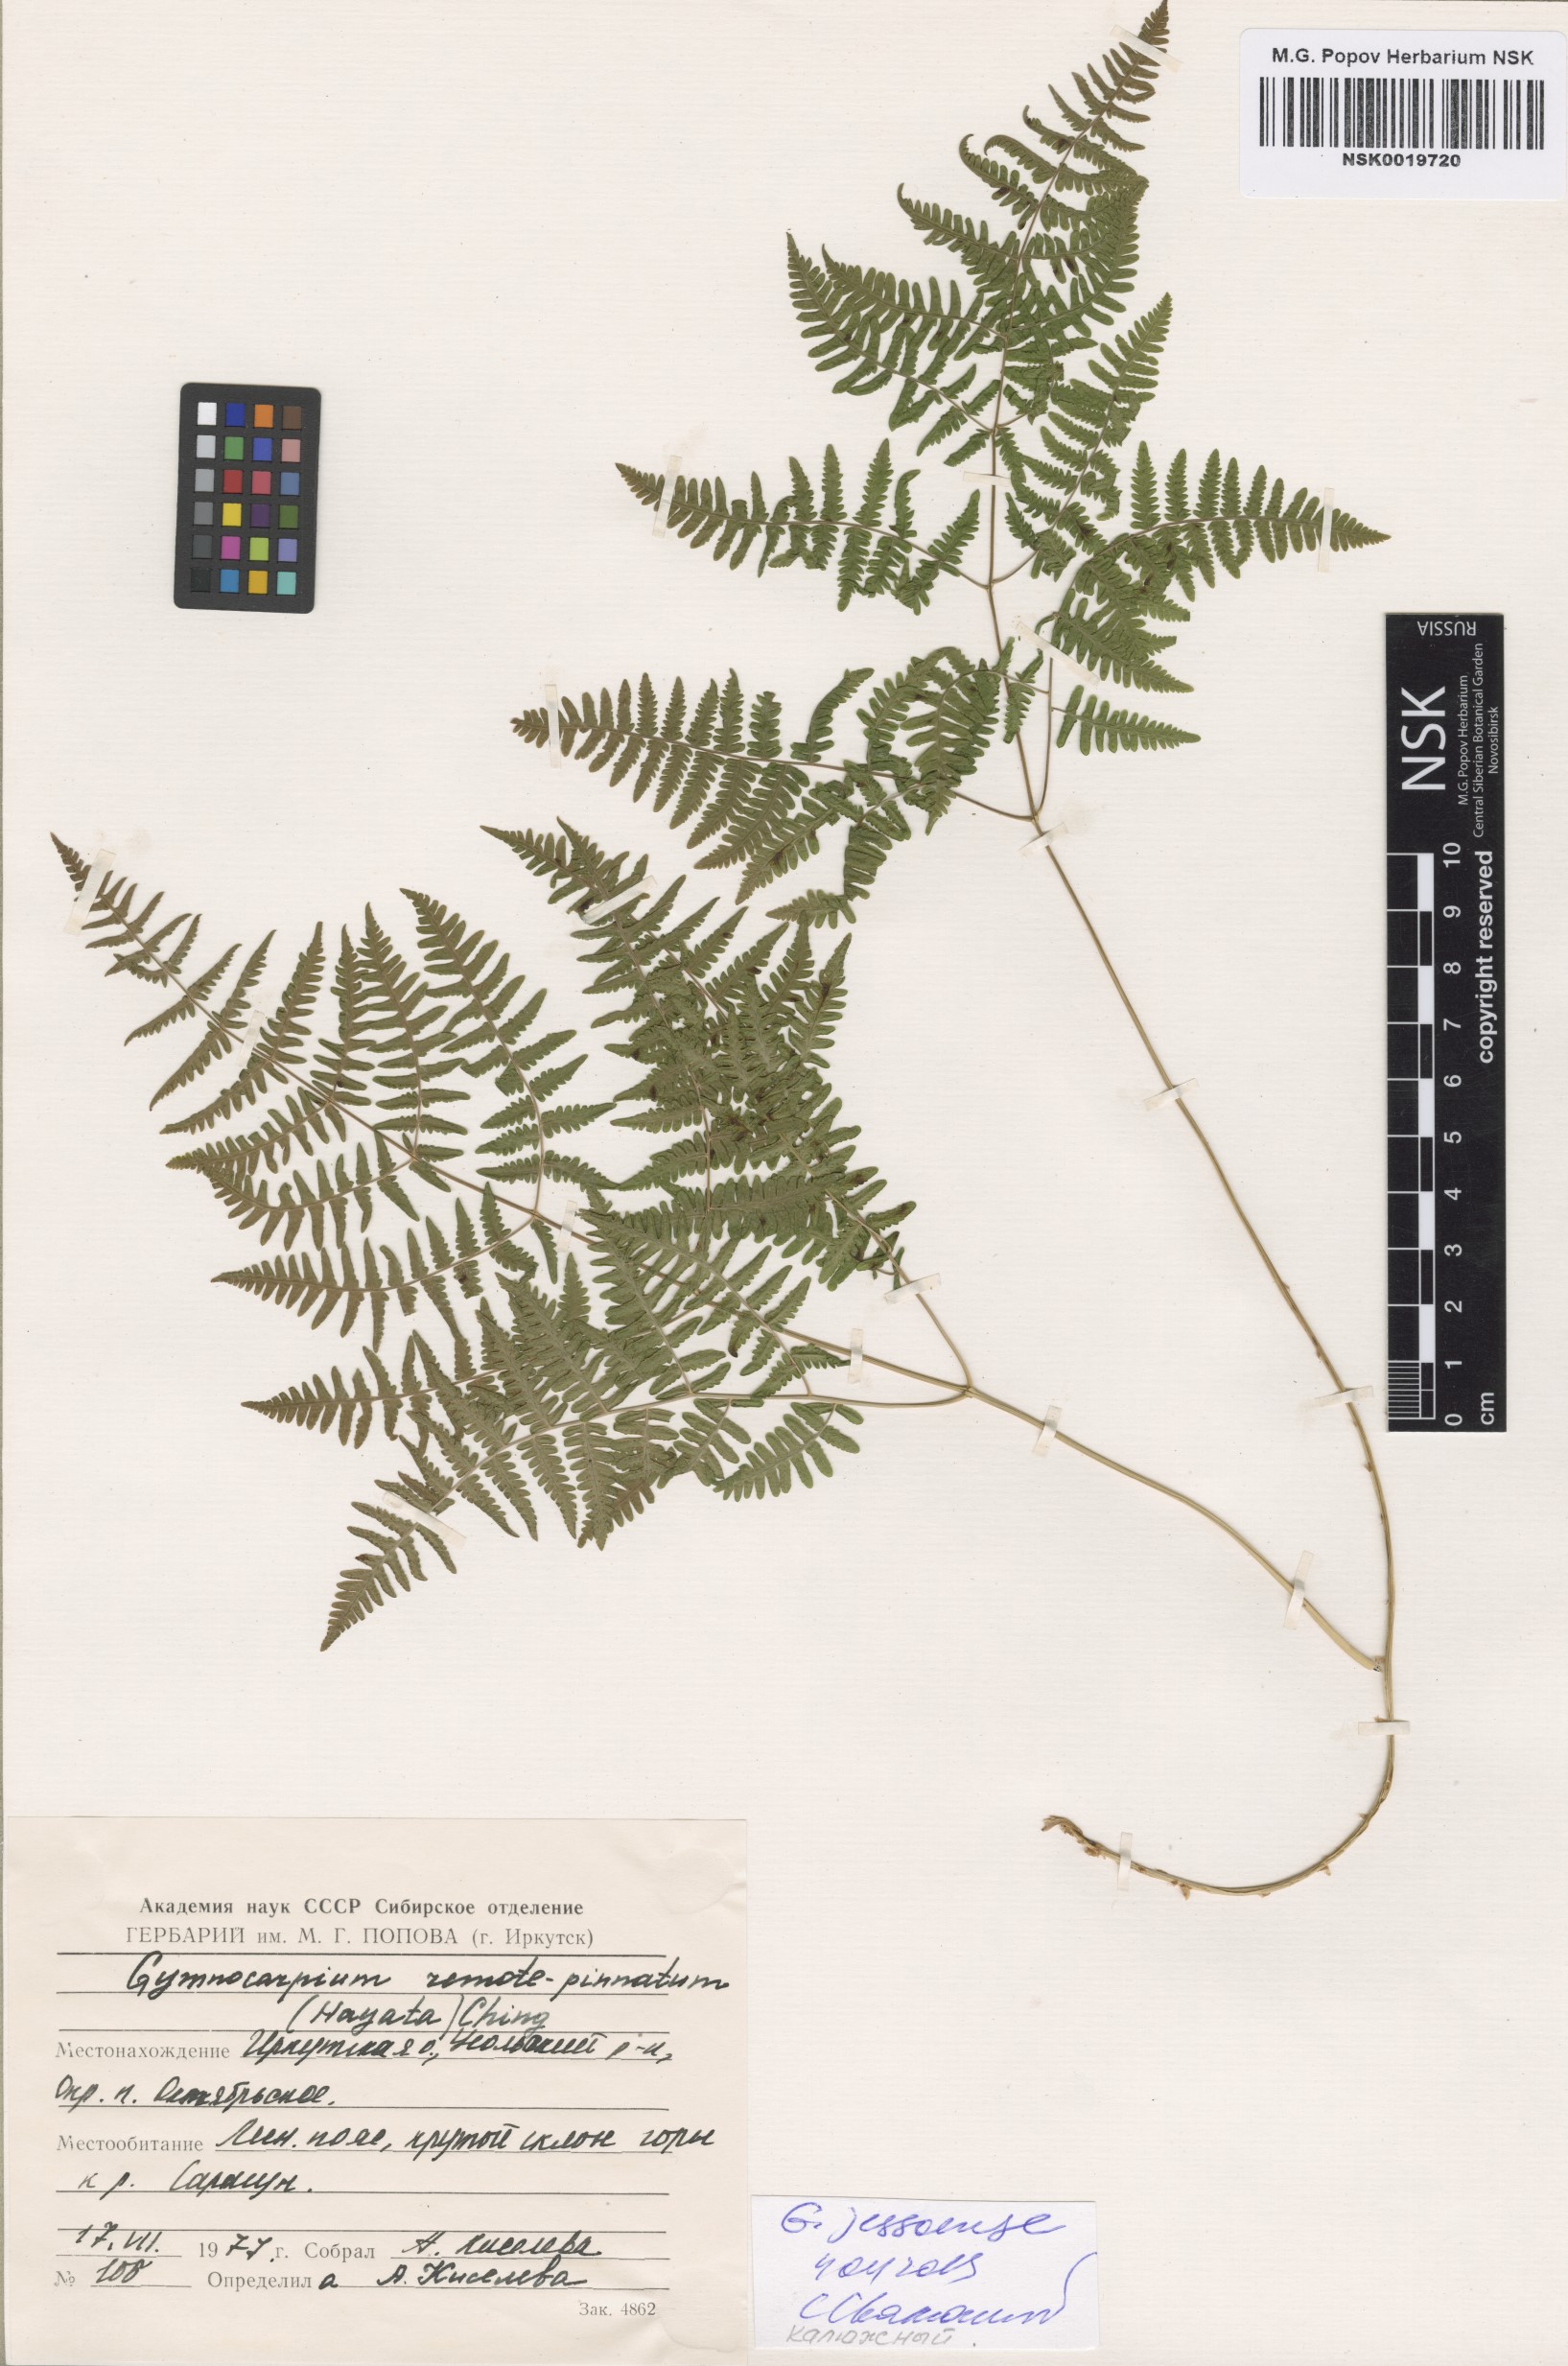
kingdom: Plantae
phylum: Tracheophyta
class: Polypodiopsida
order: Polypodiales
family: Cystopteridaceae
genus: Gymnocarpium
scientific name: Gymnocarpium jessoense
